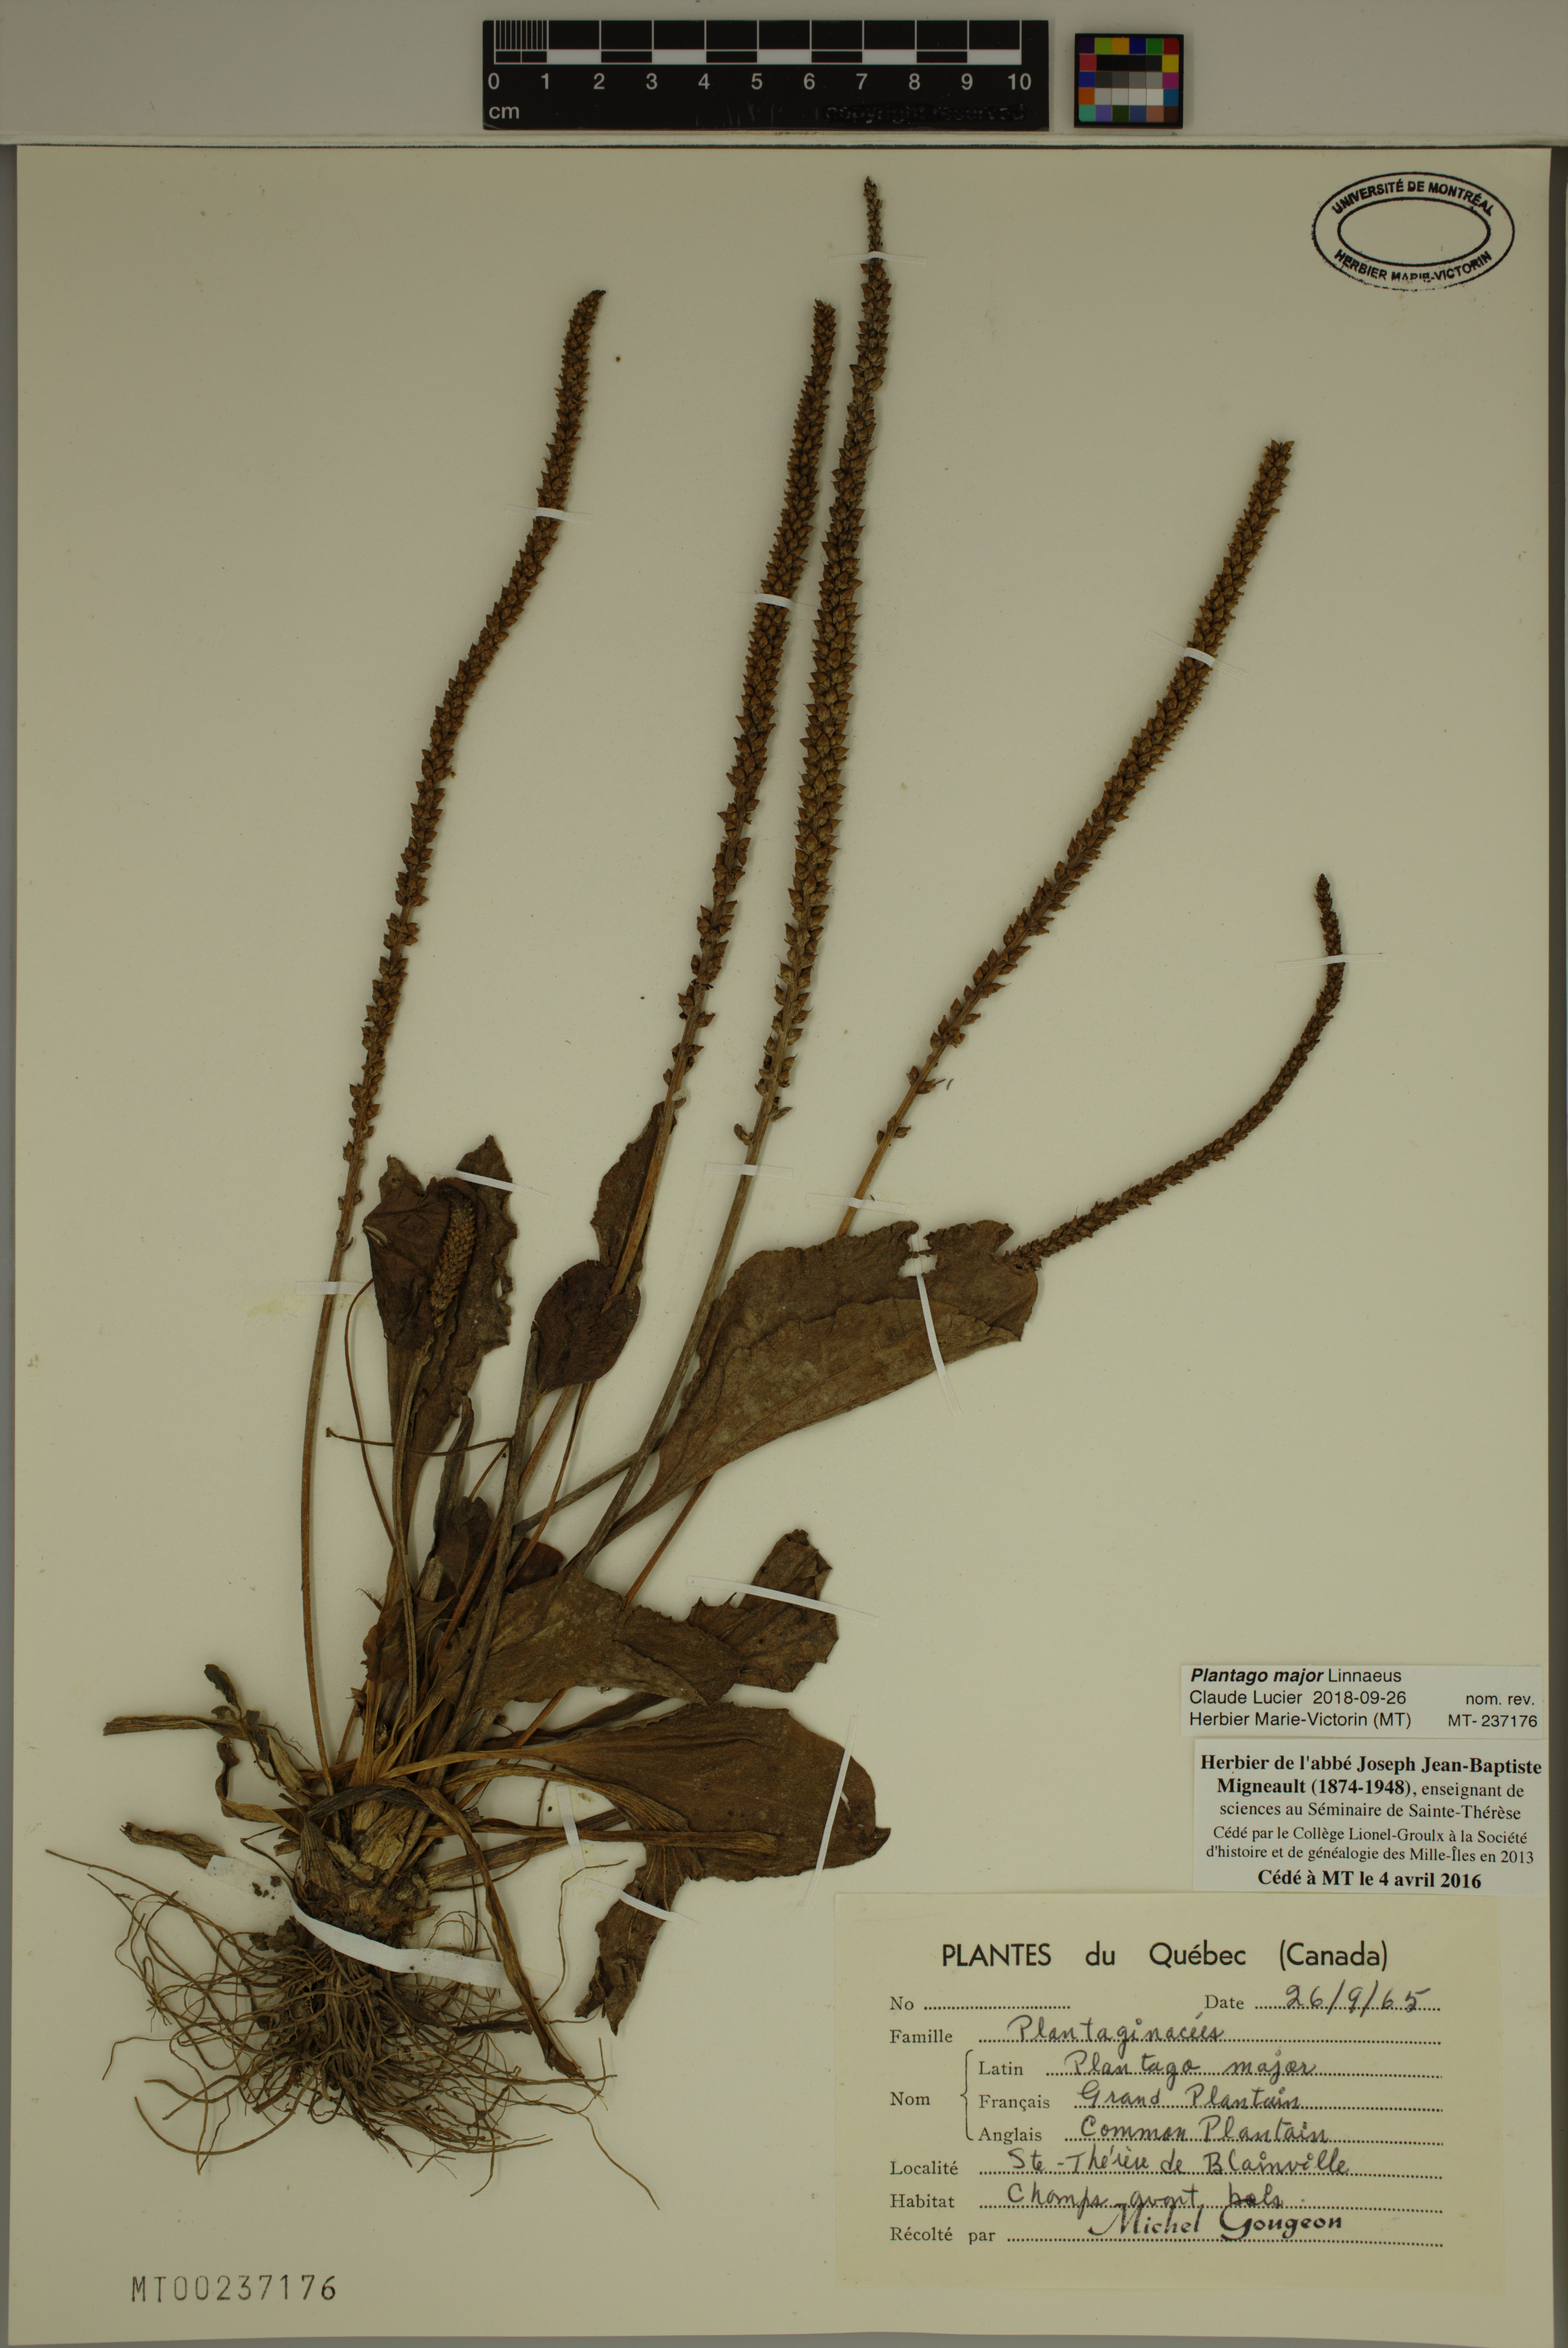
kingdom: Plantae
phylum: Tracheophyta
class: Magnoliopsida
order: Lamiales
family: Plantaginaceae
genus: Plantago
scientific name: Plantago major
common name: Common plantain
